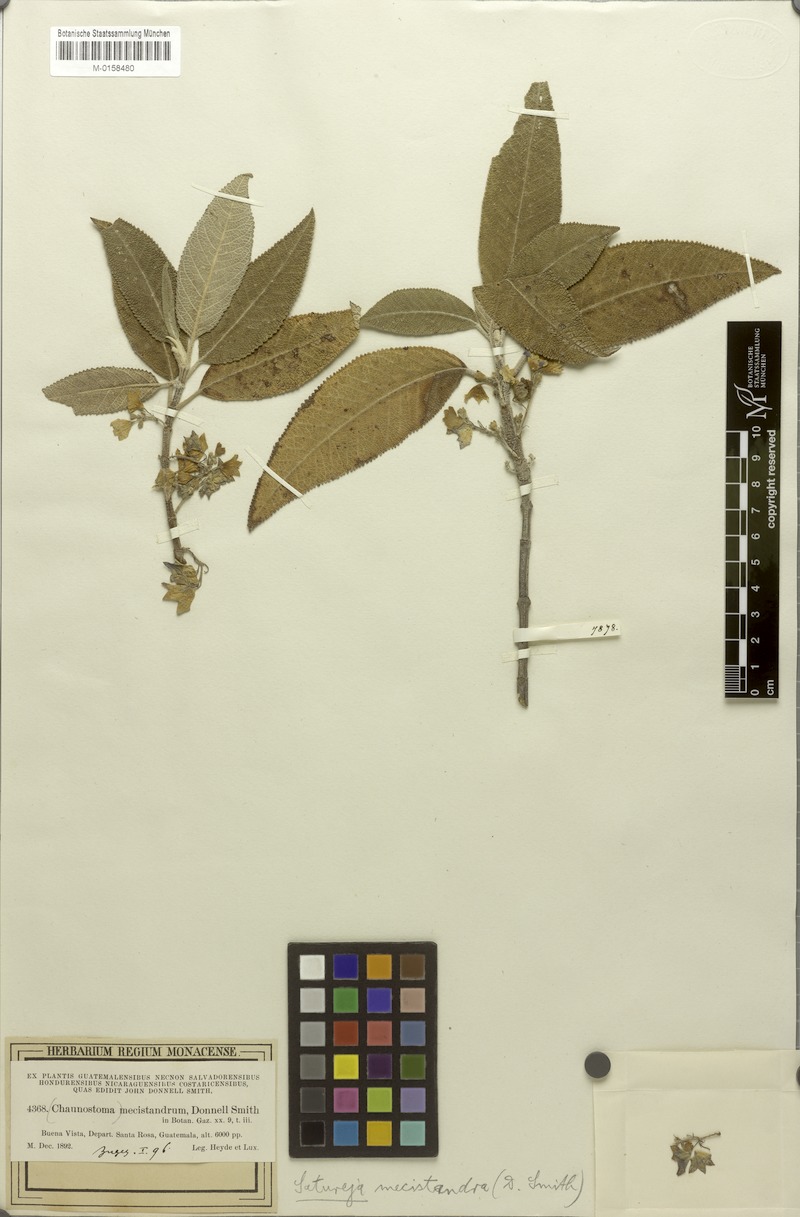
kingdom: Plantae
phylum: Tracheophyta
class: Magnoliopsida
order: Lamiales
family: Lamiaceae
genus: Lepechinia
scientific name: Lepechinia mecistandrum
